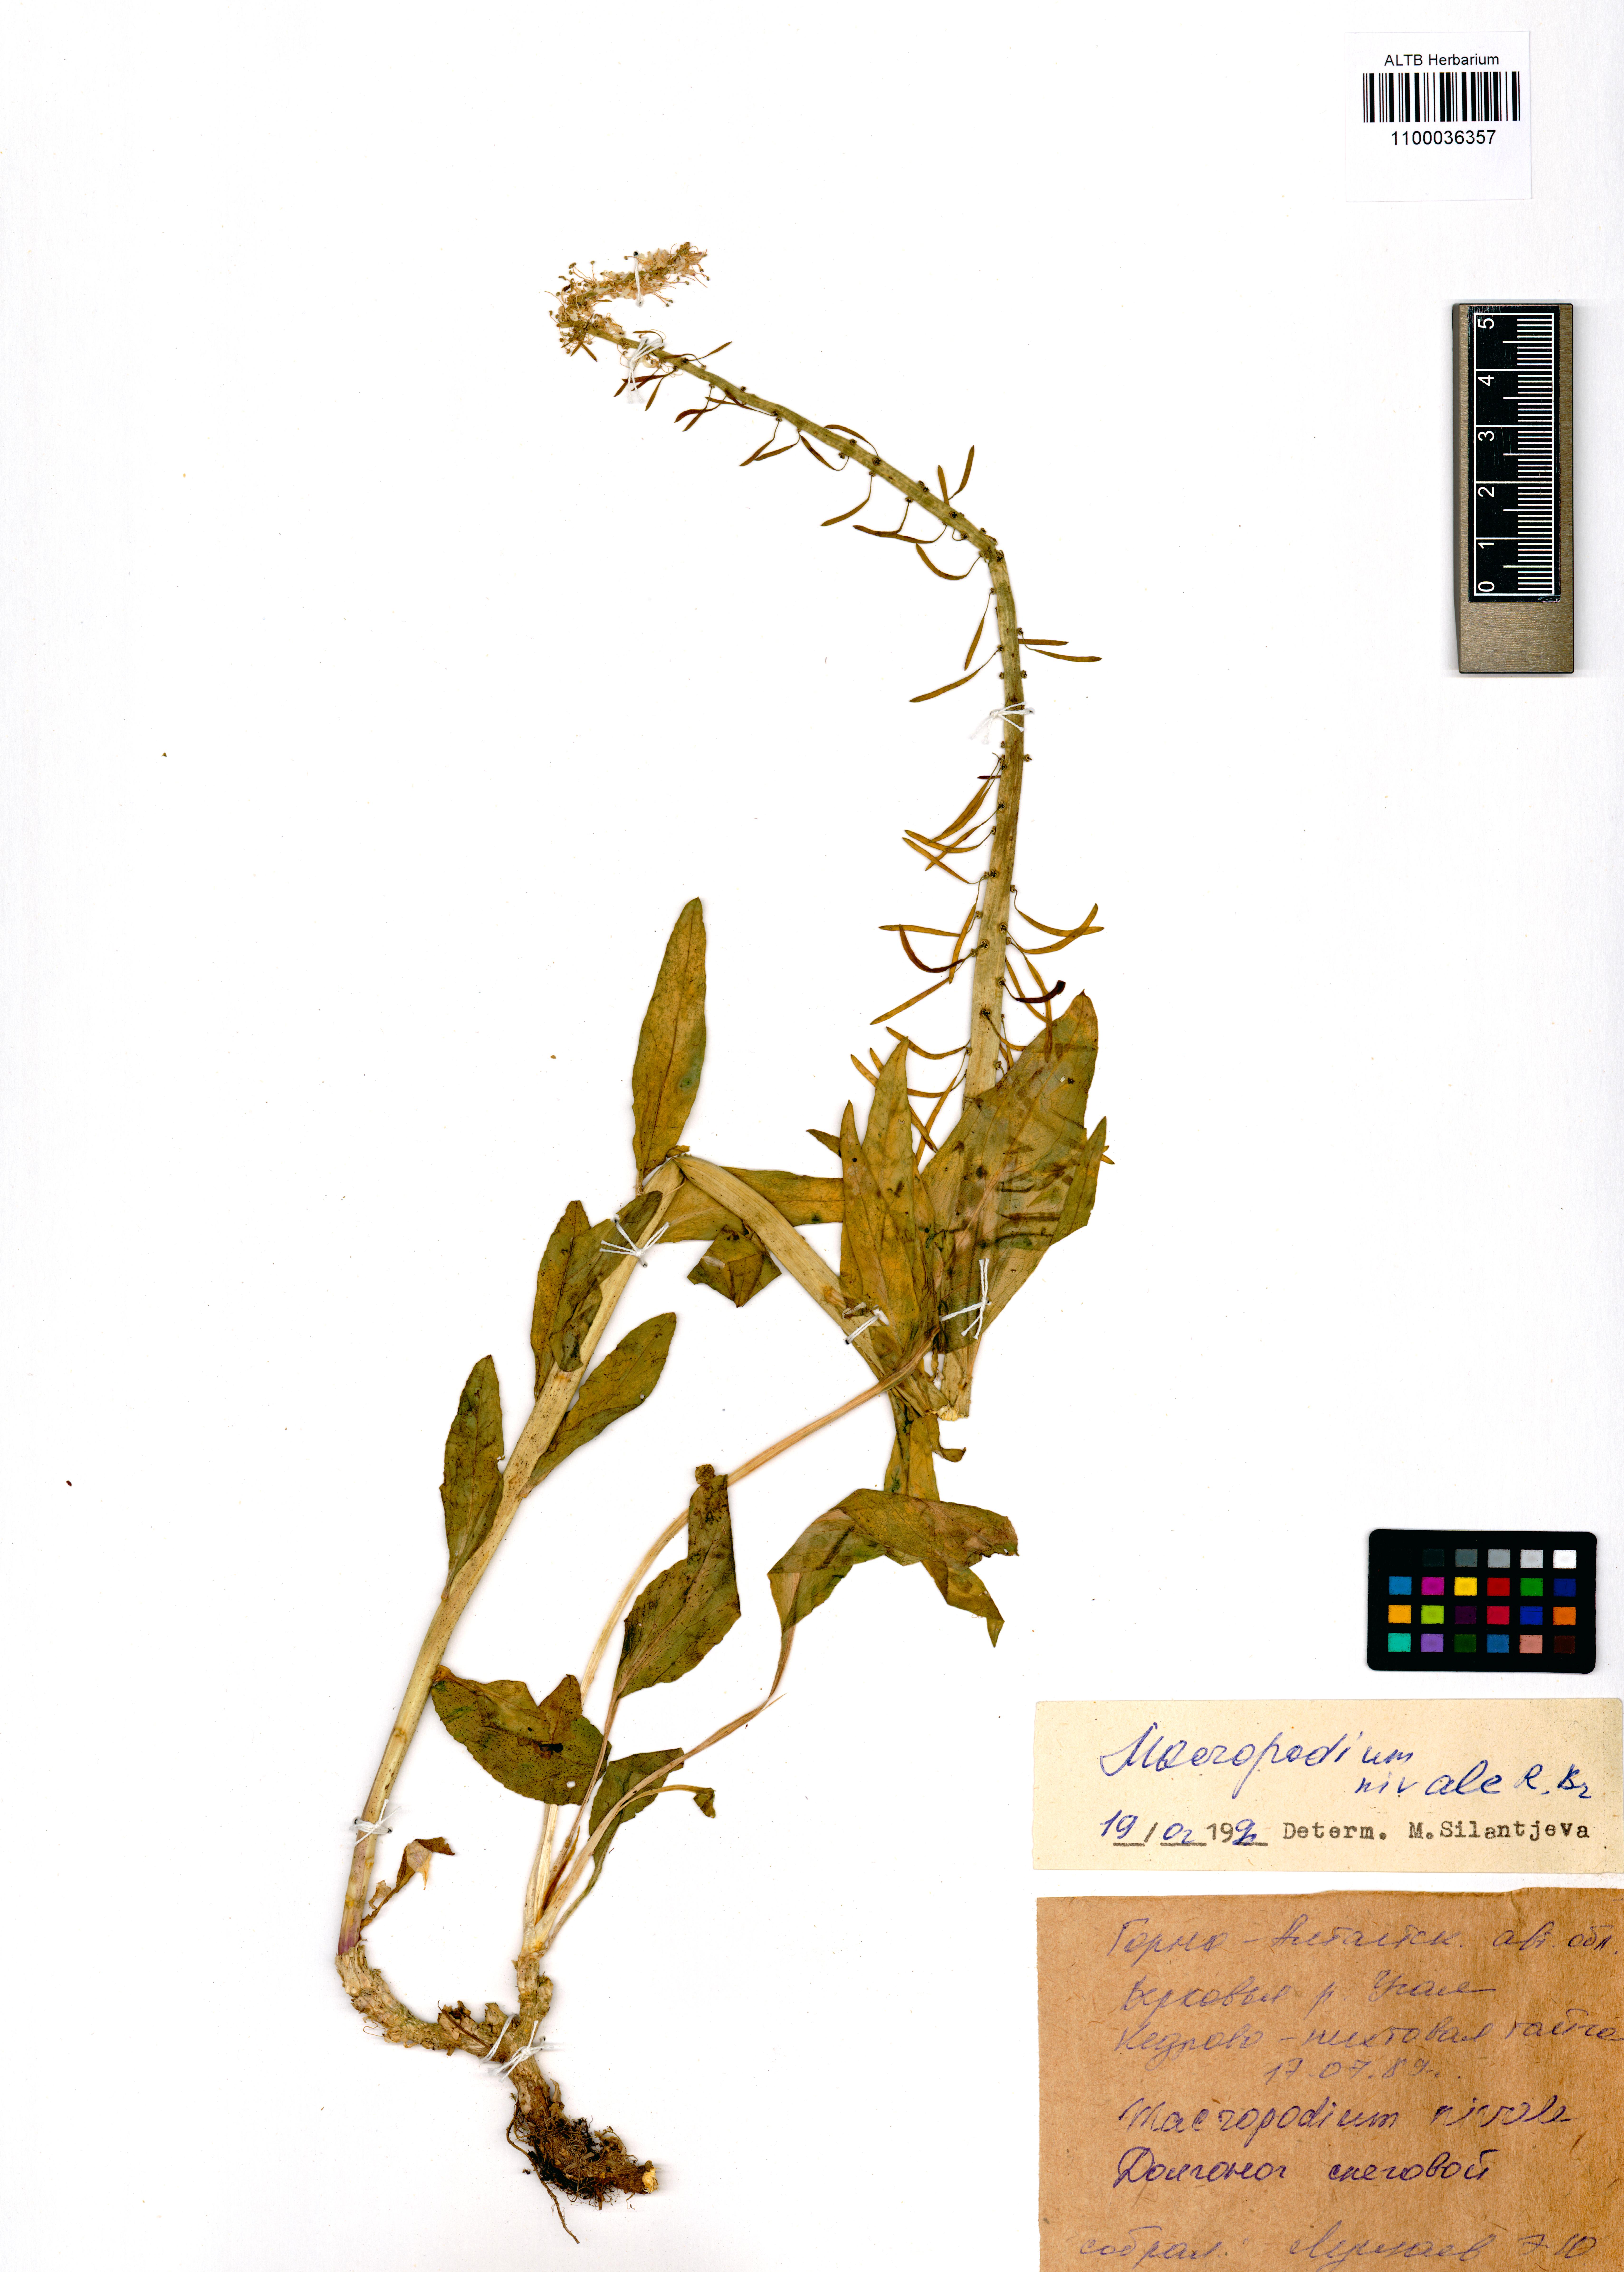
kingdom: Plantae
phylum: Tracheophyta
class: Magnoliopsida
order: Brassicales
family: Brassicaceae
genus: Macropodium
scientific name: Macropodium nivale
